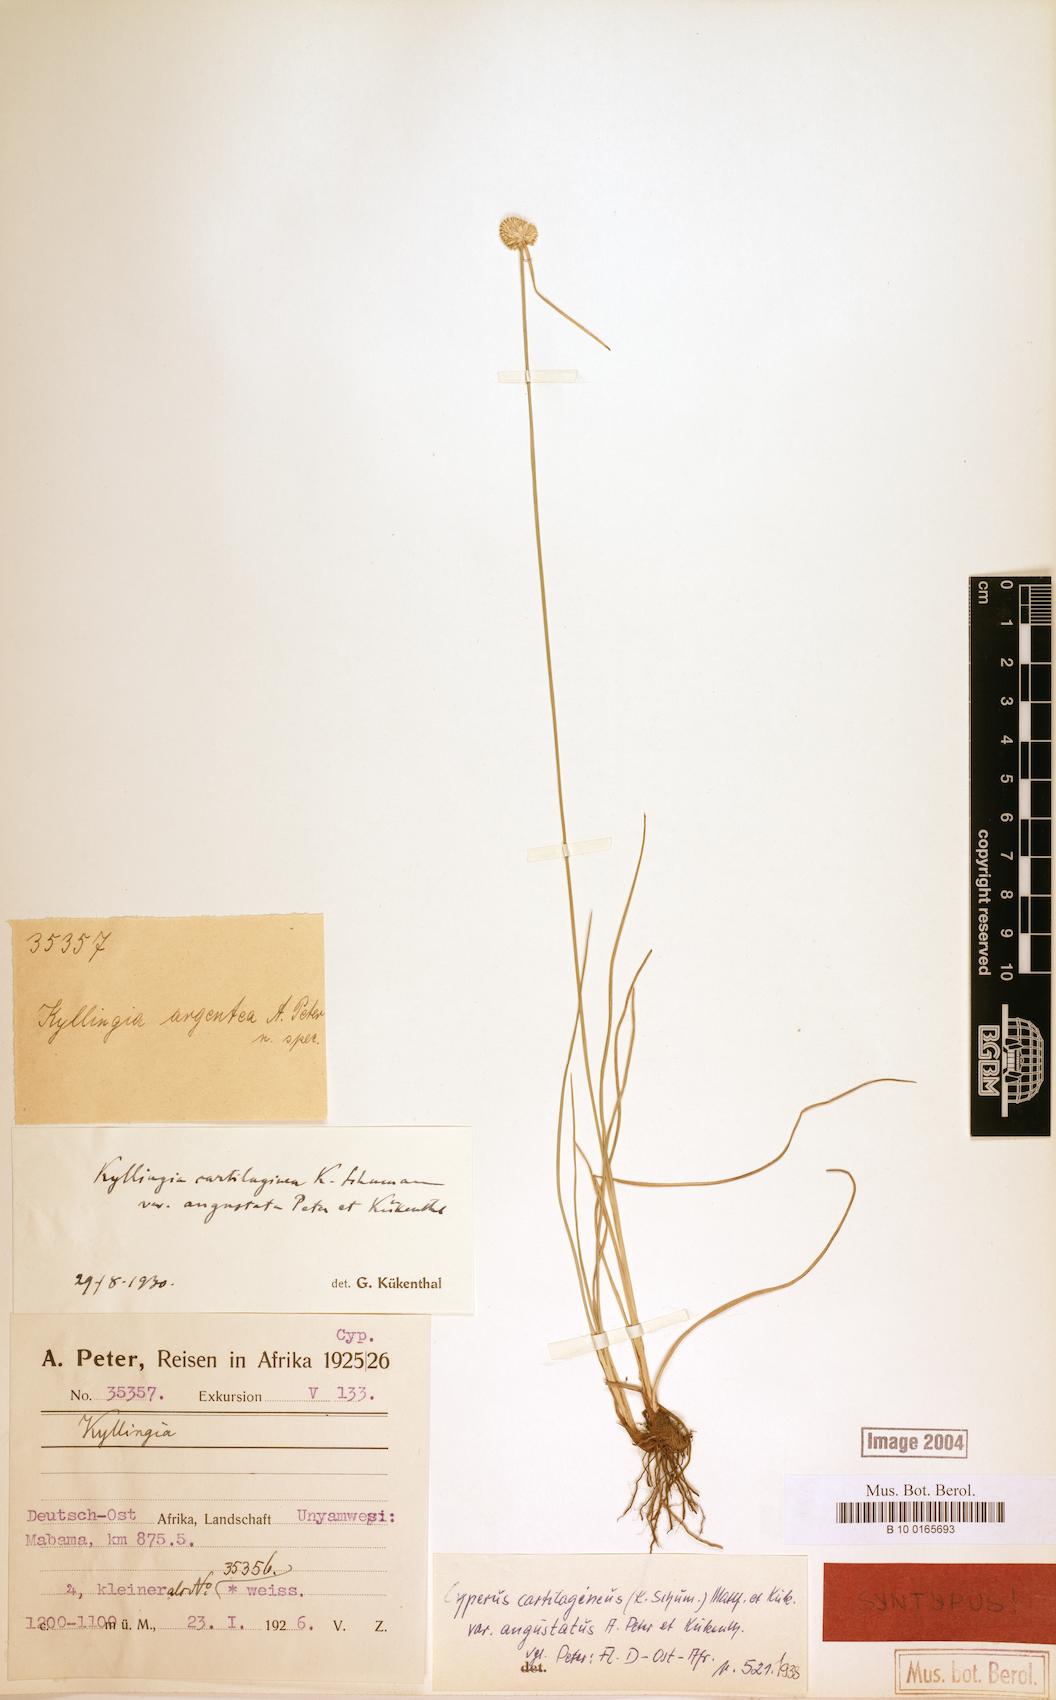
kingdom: Plantae
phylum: Tracheophyta
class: Liliopsida
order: Poales
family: Cyperaceae
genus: Cyperus
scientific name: Cyperus comosipes
